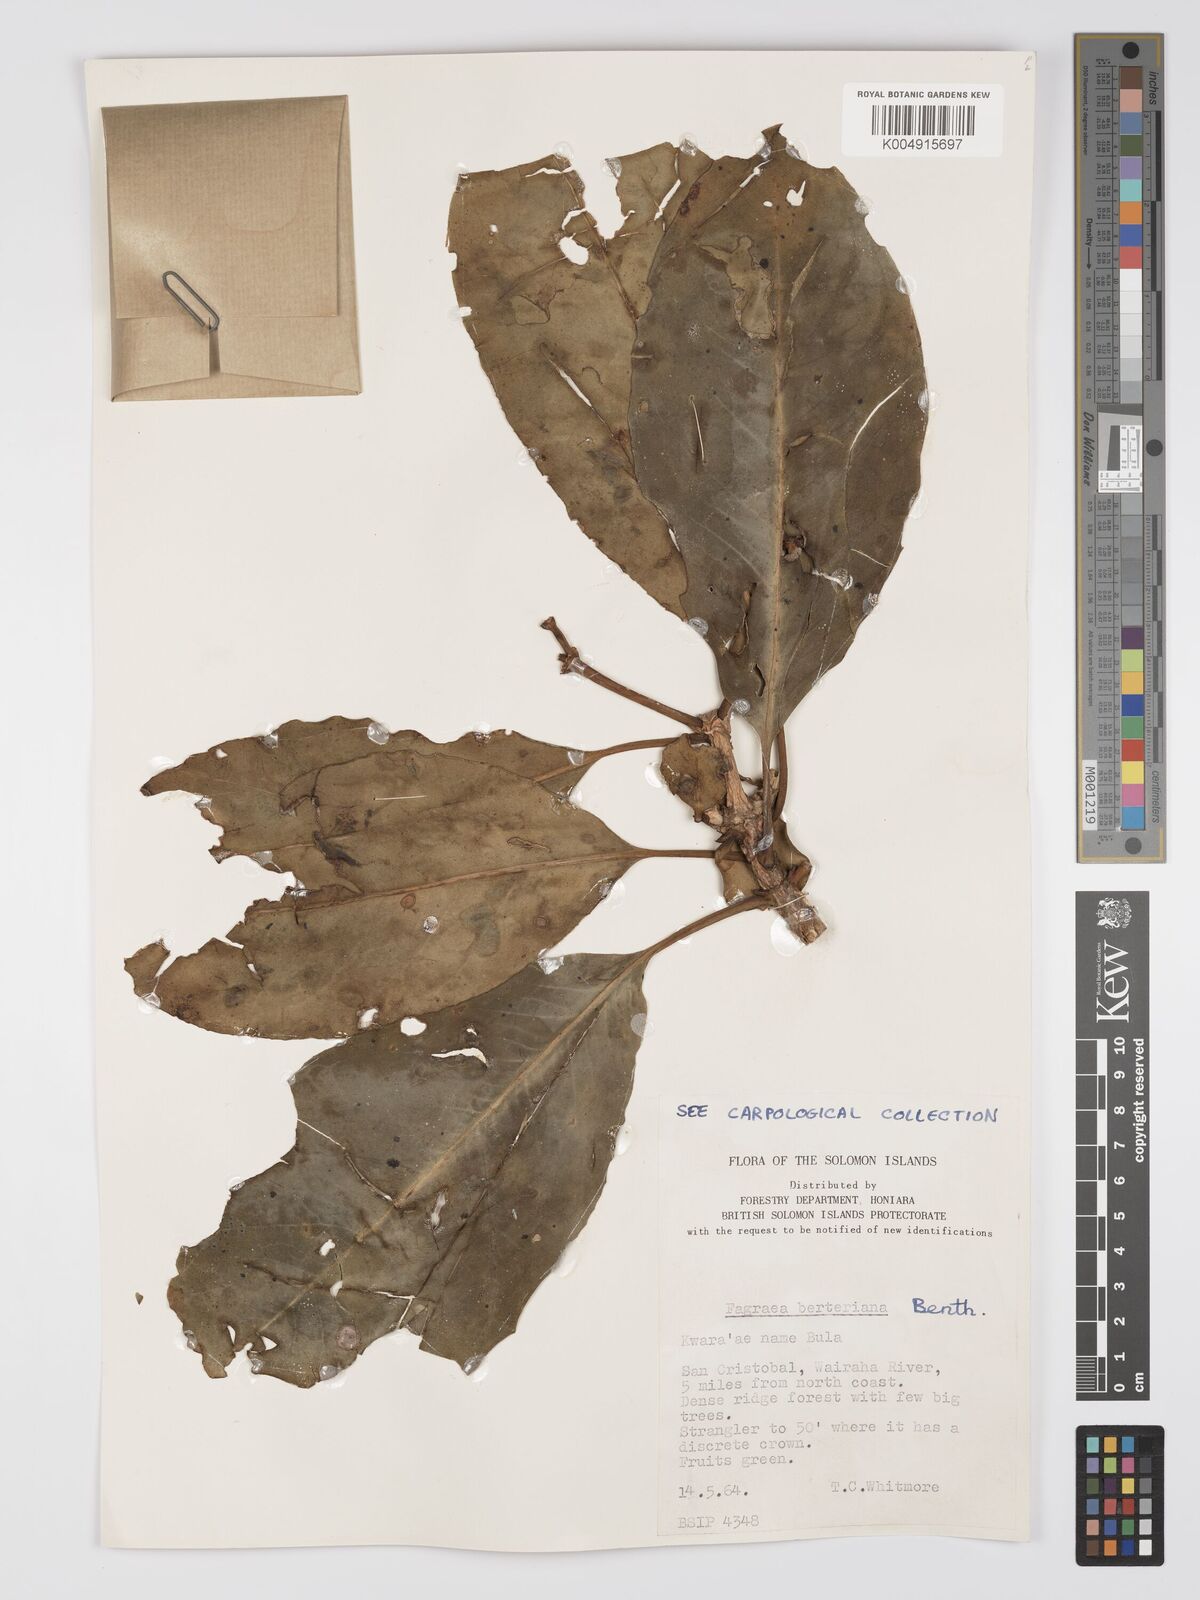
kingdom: Plantae
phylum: Tracheophyta
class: Magnoliopsida
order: Gentianales
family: Gentianaceae
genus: Fagraea
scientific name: Fagraea berteroana
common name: Cape jitta
